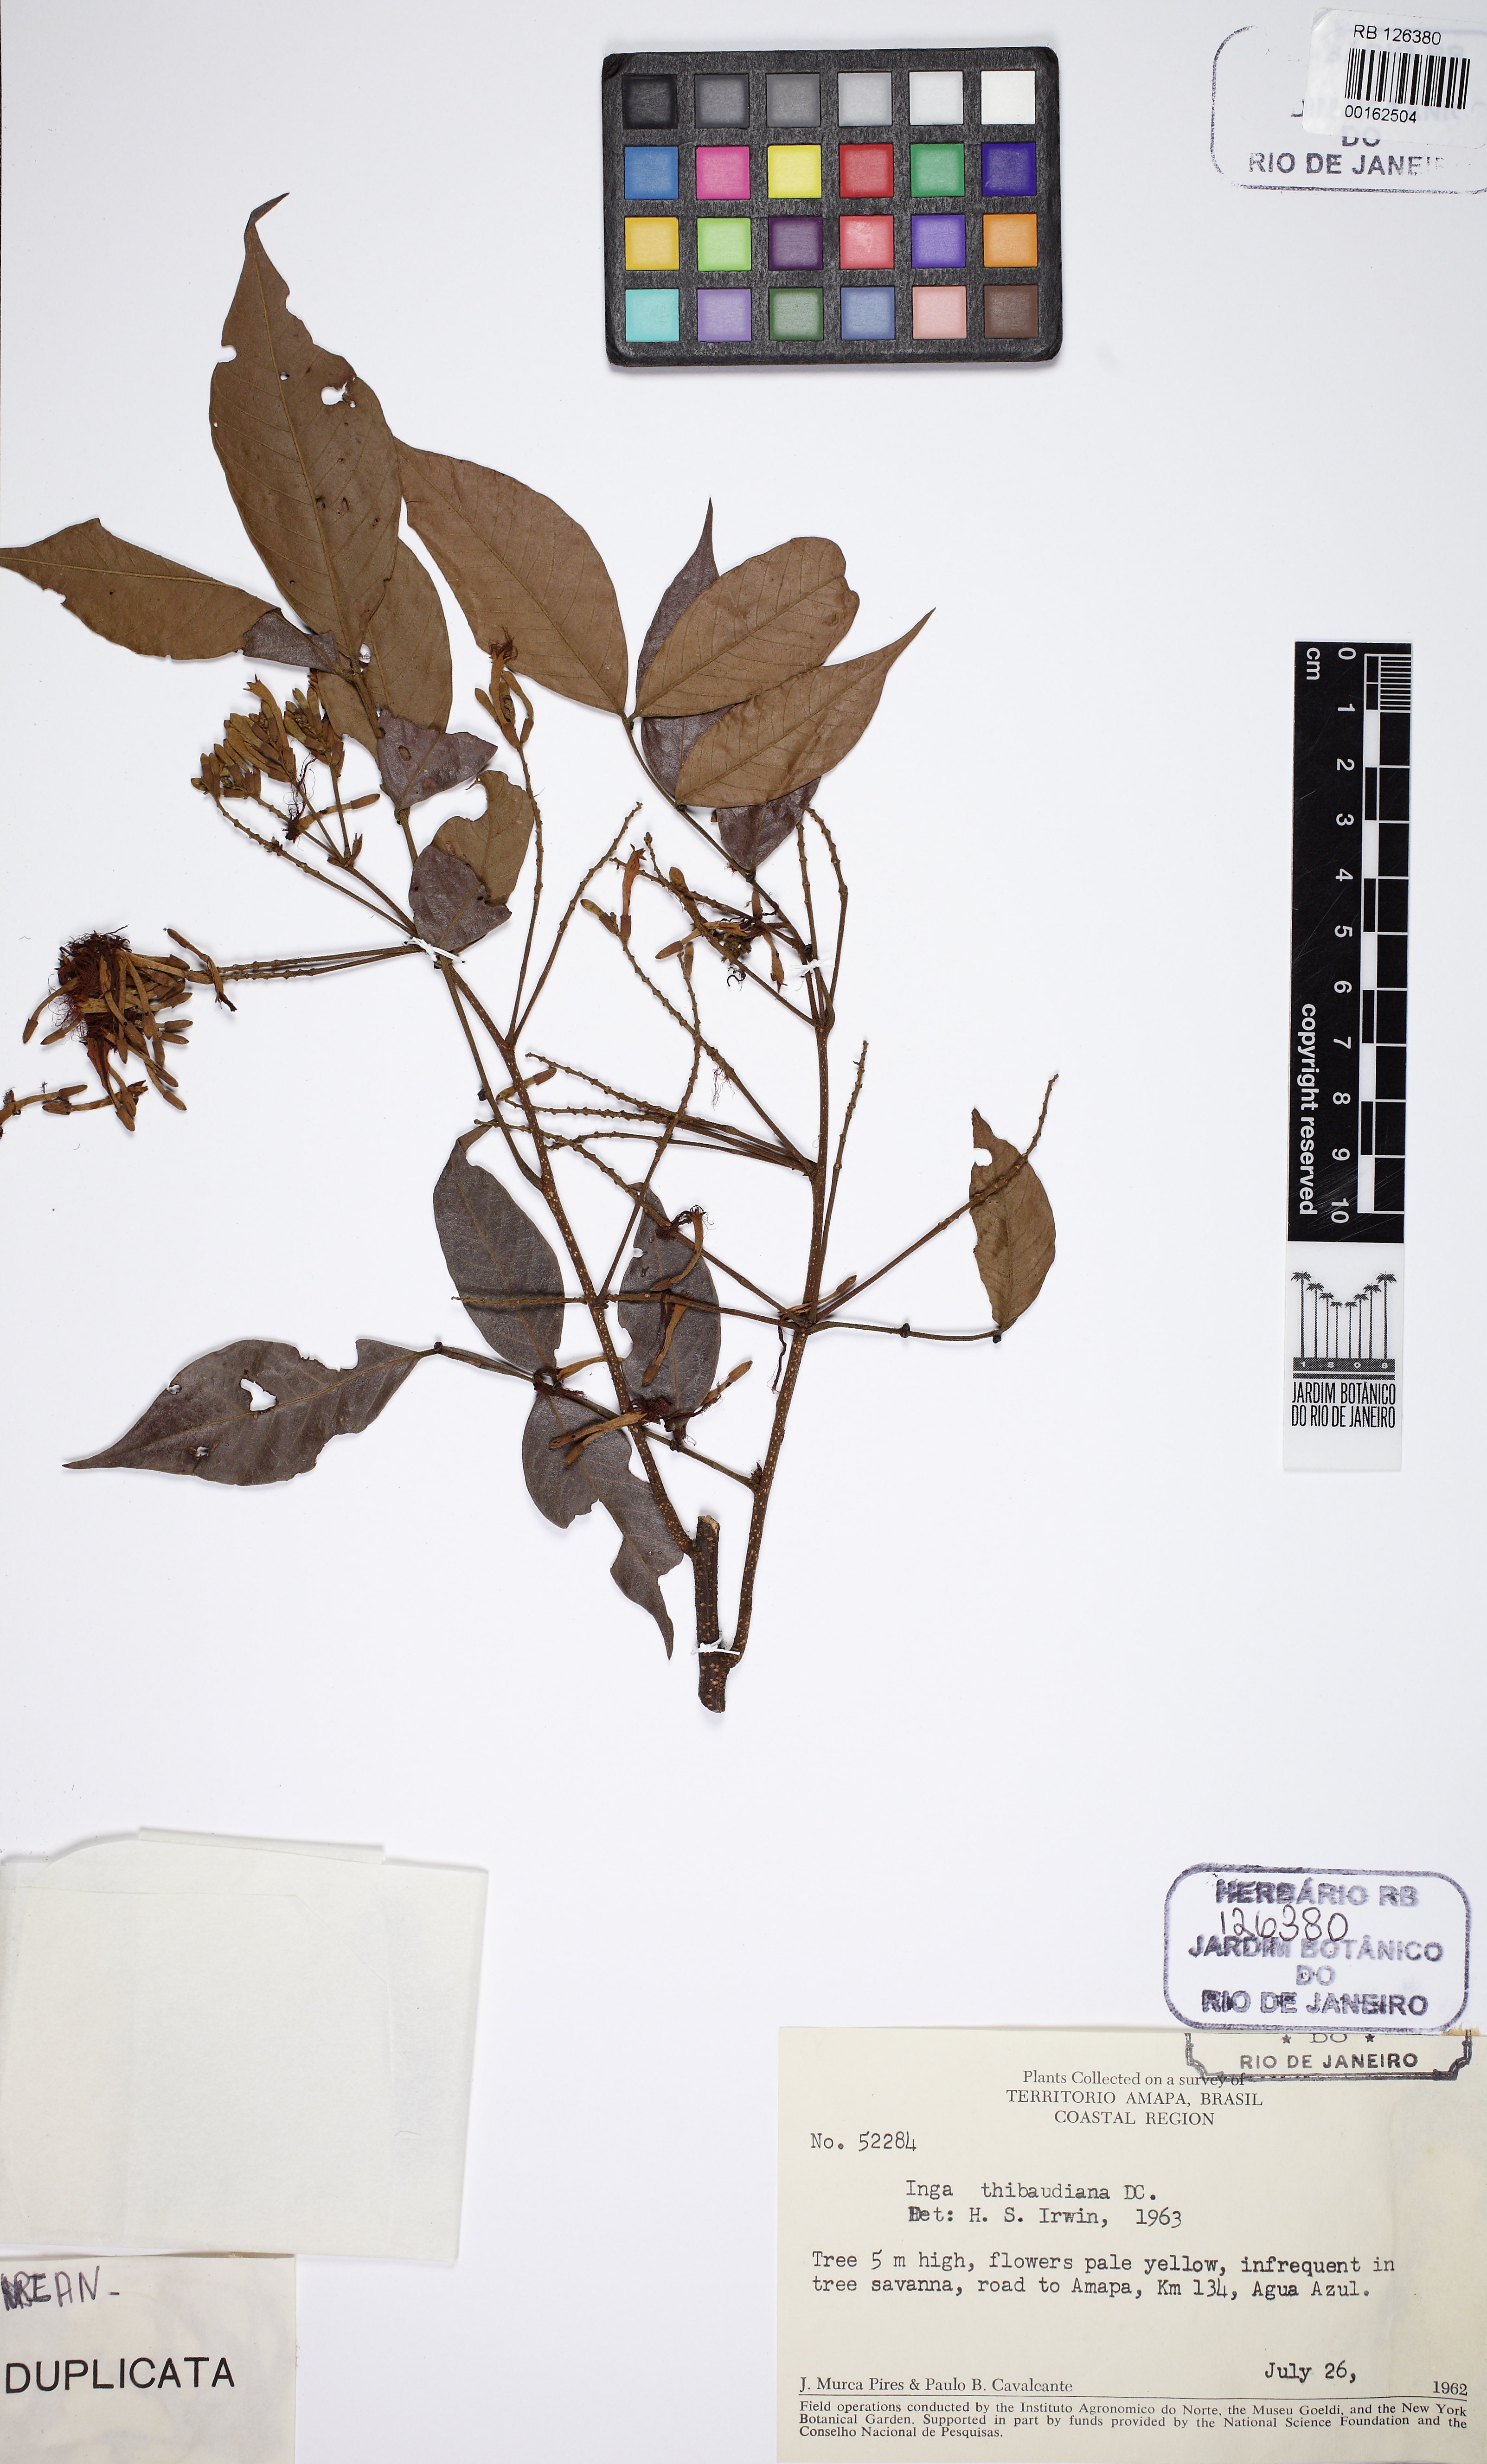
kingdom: Plantae
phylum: Tracheophyta
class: Magnoliopsida
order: Fabales
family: Fabaceae
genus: Inga
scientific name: Inga thibaudiana
